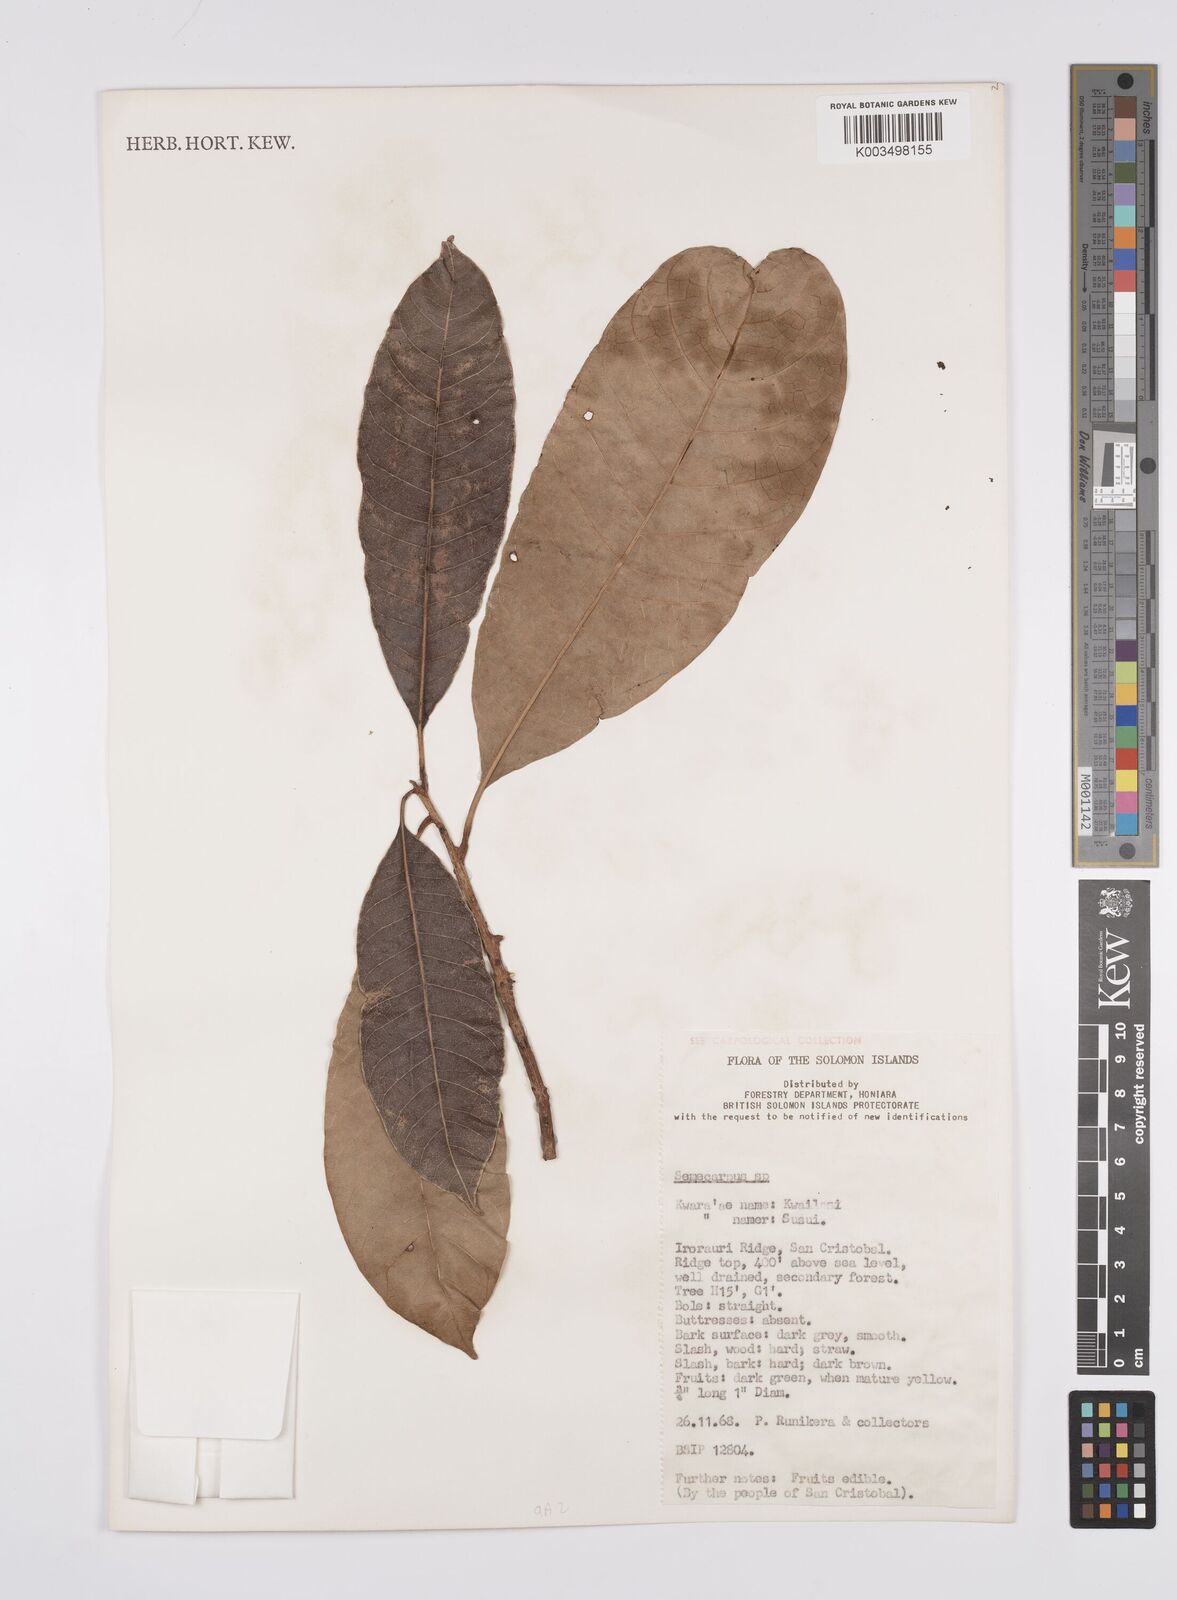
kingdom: Plantae
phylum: Tracheophyta
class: Magnoliopsida
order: Sapindales
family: Anacardiaceae
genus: Semecarpus
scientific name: Semecarpus
